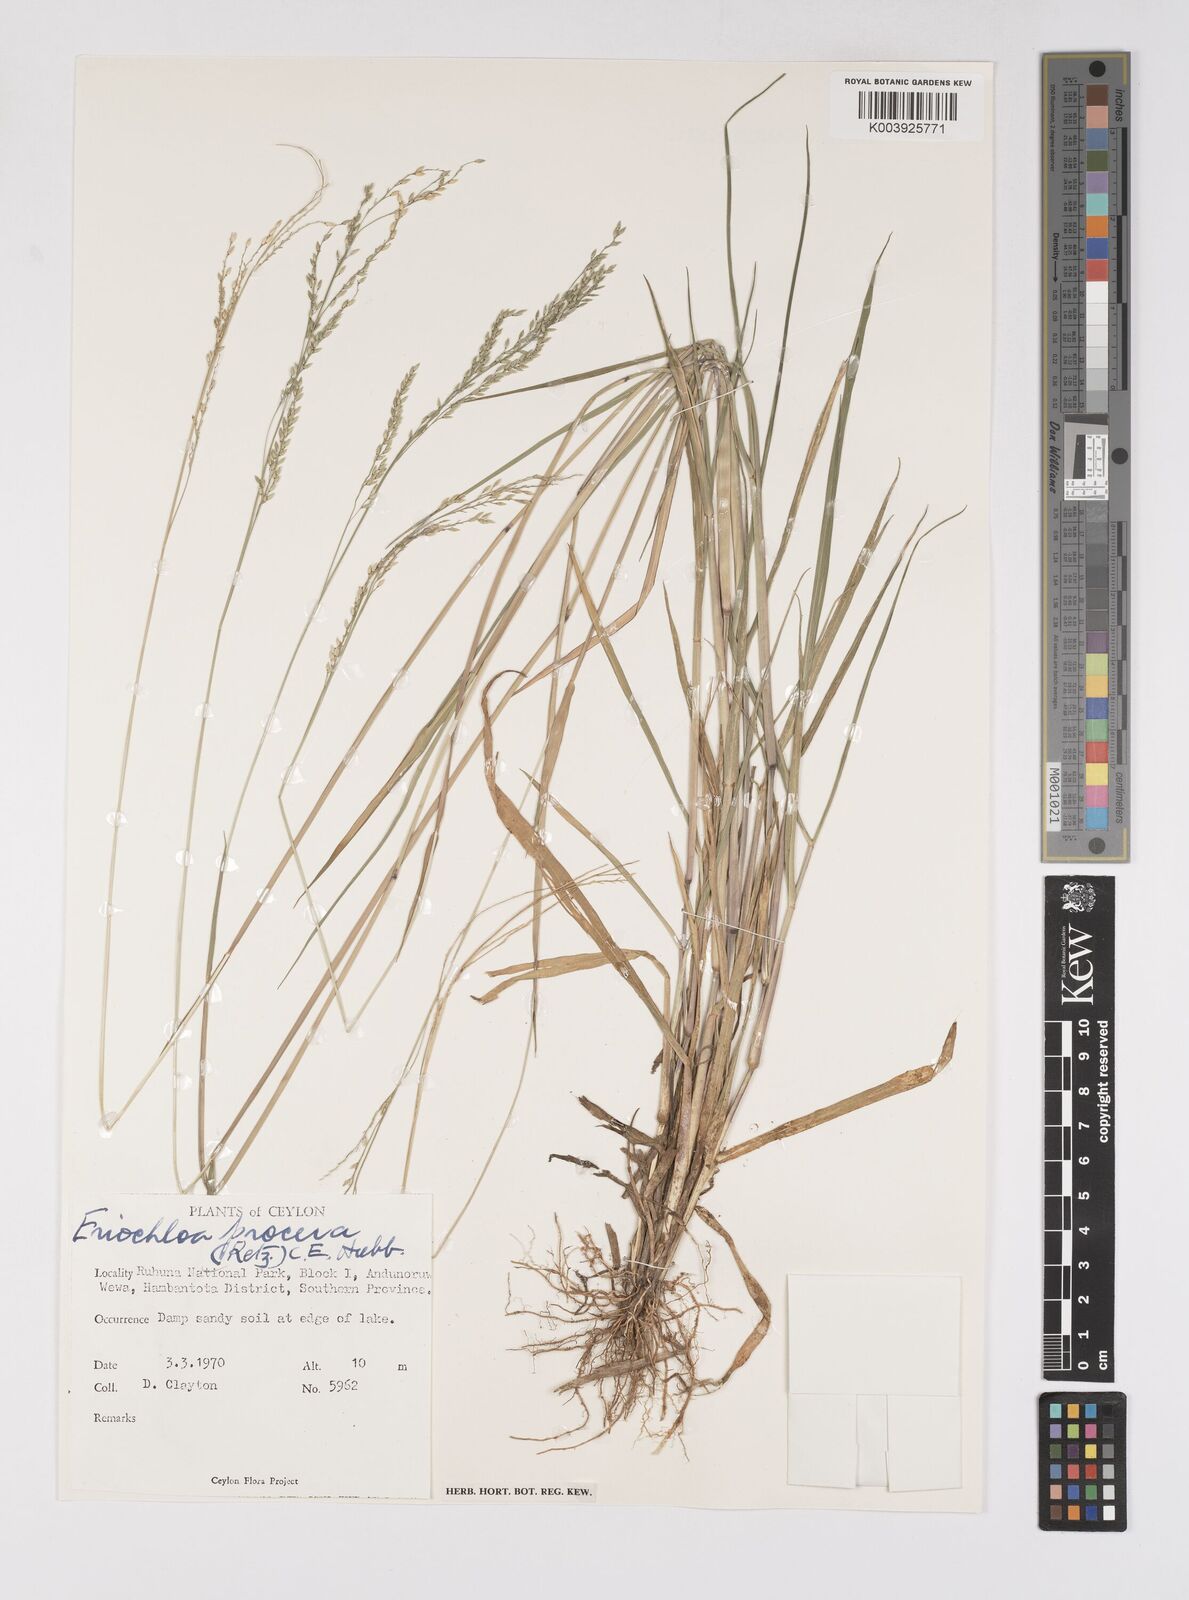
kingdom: Plantae
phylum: Tracheophyta
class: Liliopsida
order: Poales
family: Poaceae
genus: Eriochloa
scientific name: Eriochloa procera
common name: Spring grass
